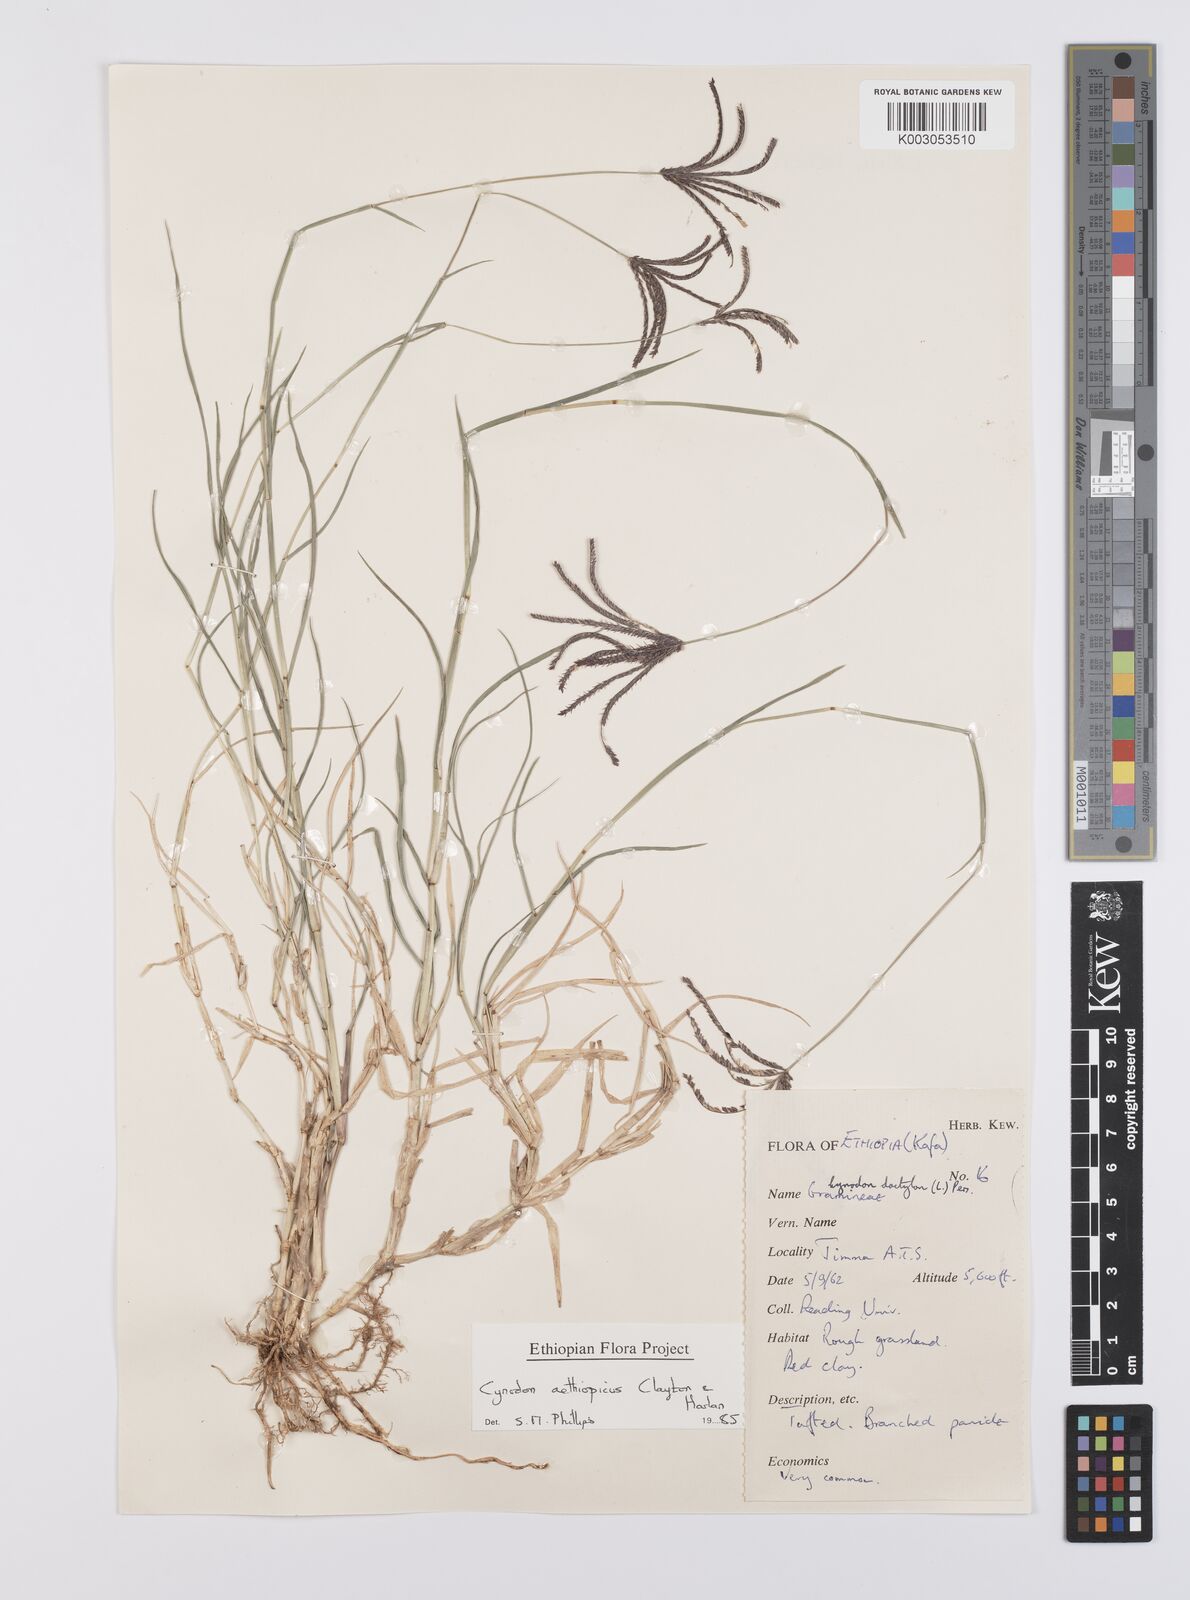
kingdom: Plantae
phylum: Tracheophyta
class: Liliopsida
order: Poales
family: Poaceae
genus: Cynodon
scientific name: Cynodon aethiopicus
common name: Ethiopian dogstooth grass
